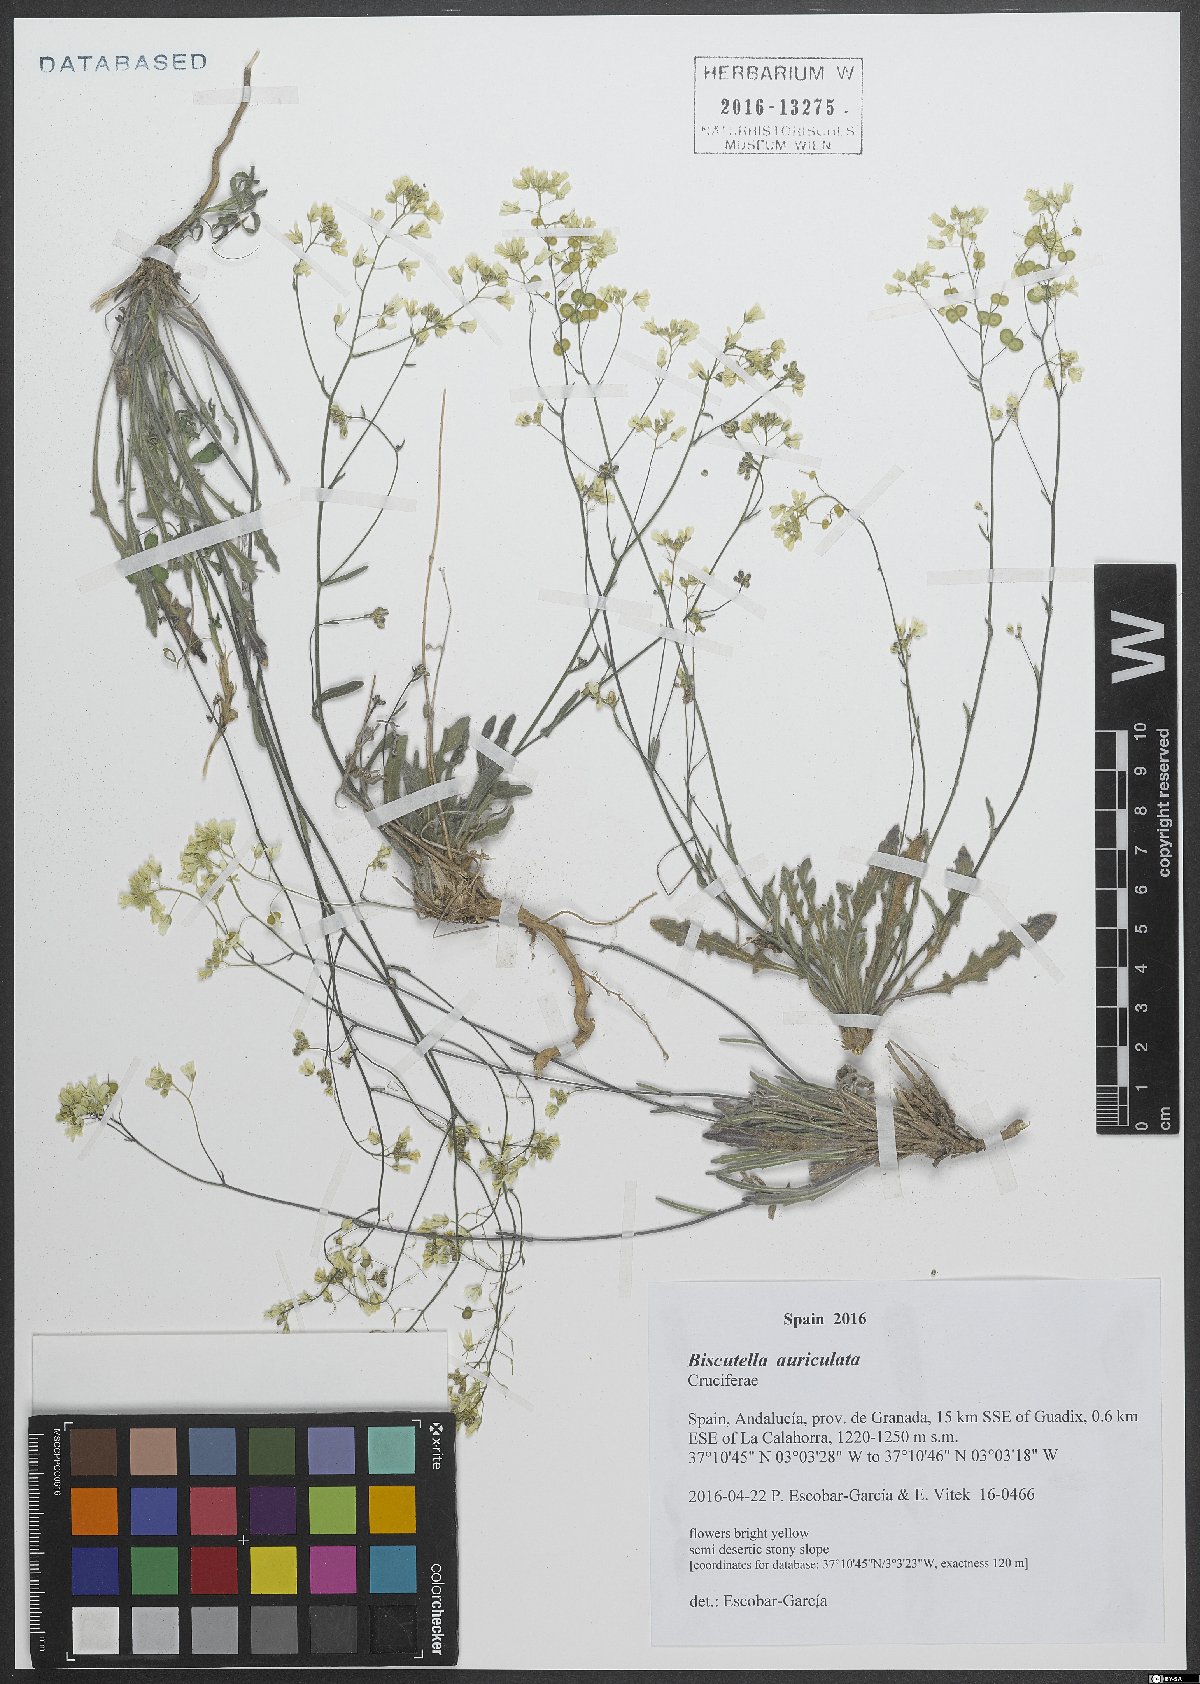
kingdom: Plantae
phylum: Tracheophyta
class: Magnoliopsida
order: Brassicales
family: Brassicaceae
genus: Biscutella
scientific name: Biscutella auriculata
